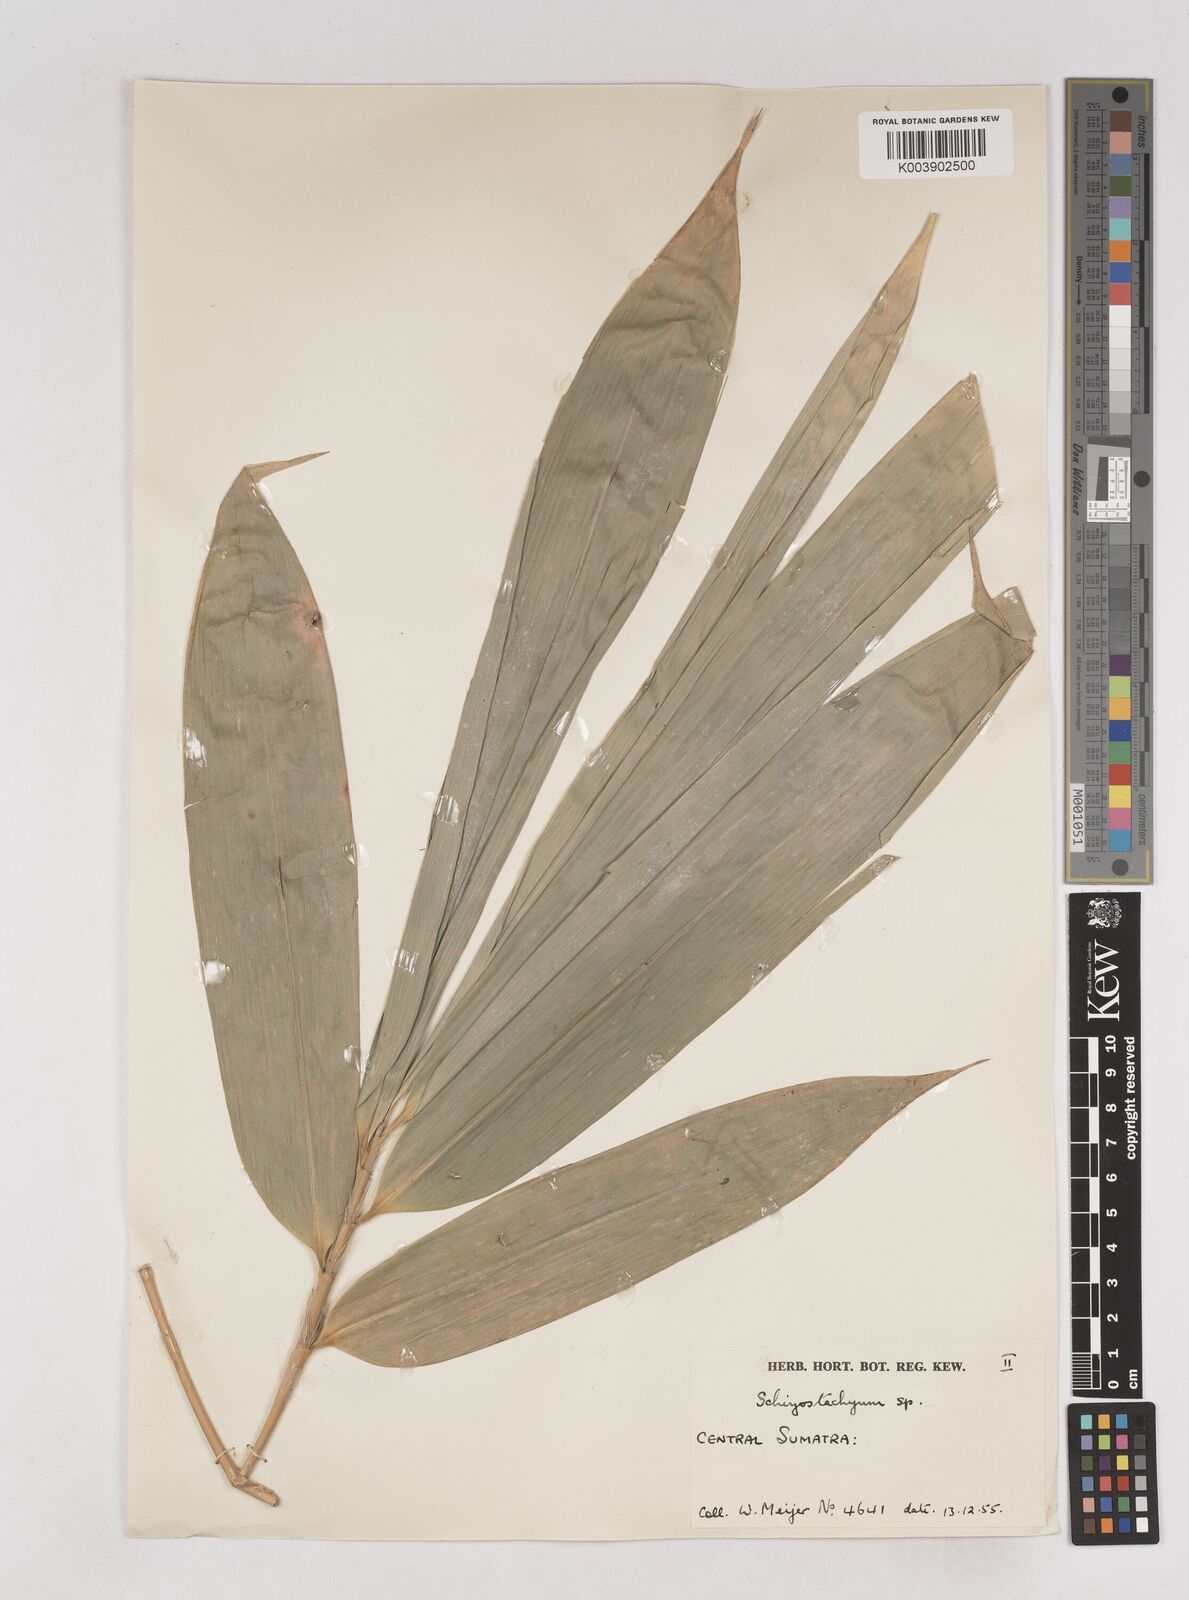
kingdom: Plantae
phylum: Tracheophyta
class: Liliopsida
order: Poales
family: Poaceae
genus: Schizostachyum
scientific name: Schizostachyum
